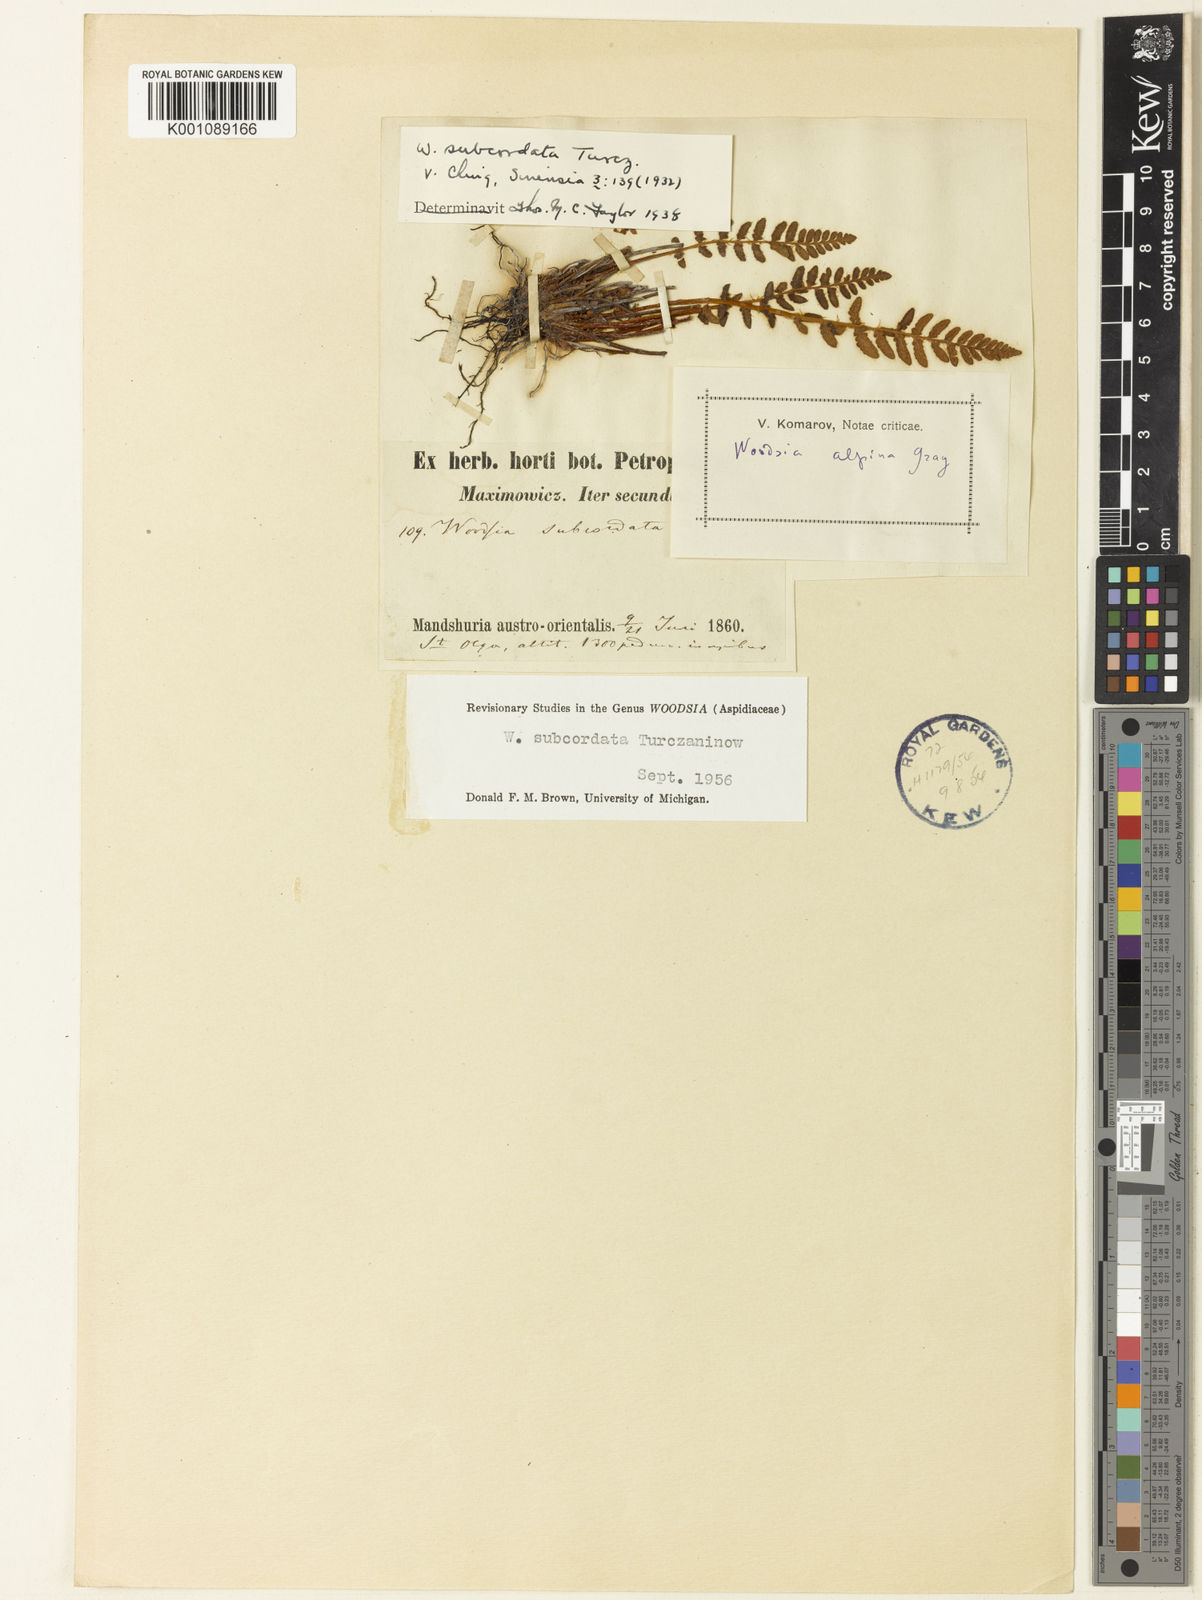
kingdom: Plantae
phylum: Tracheophyta
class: Polypodiopsida
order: Polypodiales
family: Woodsiaceae
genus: Woodsia
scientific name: Woodsia subcordata
